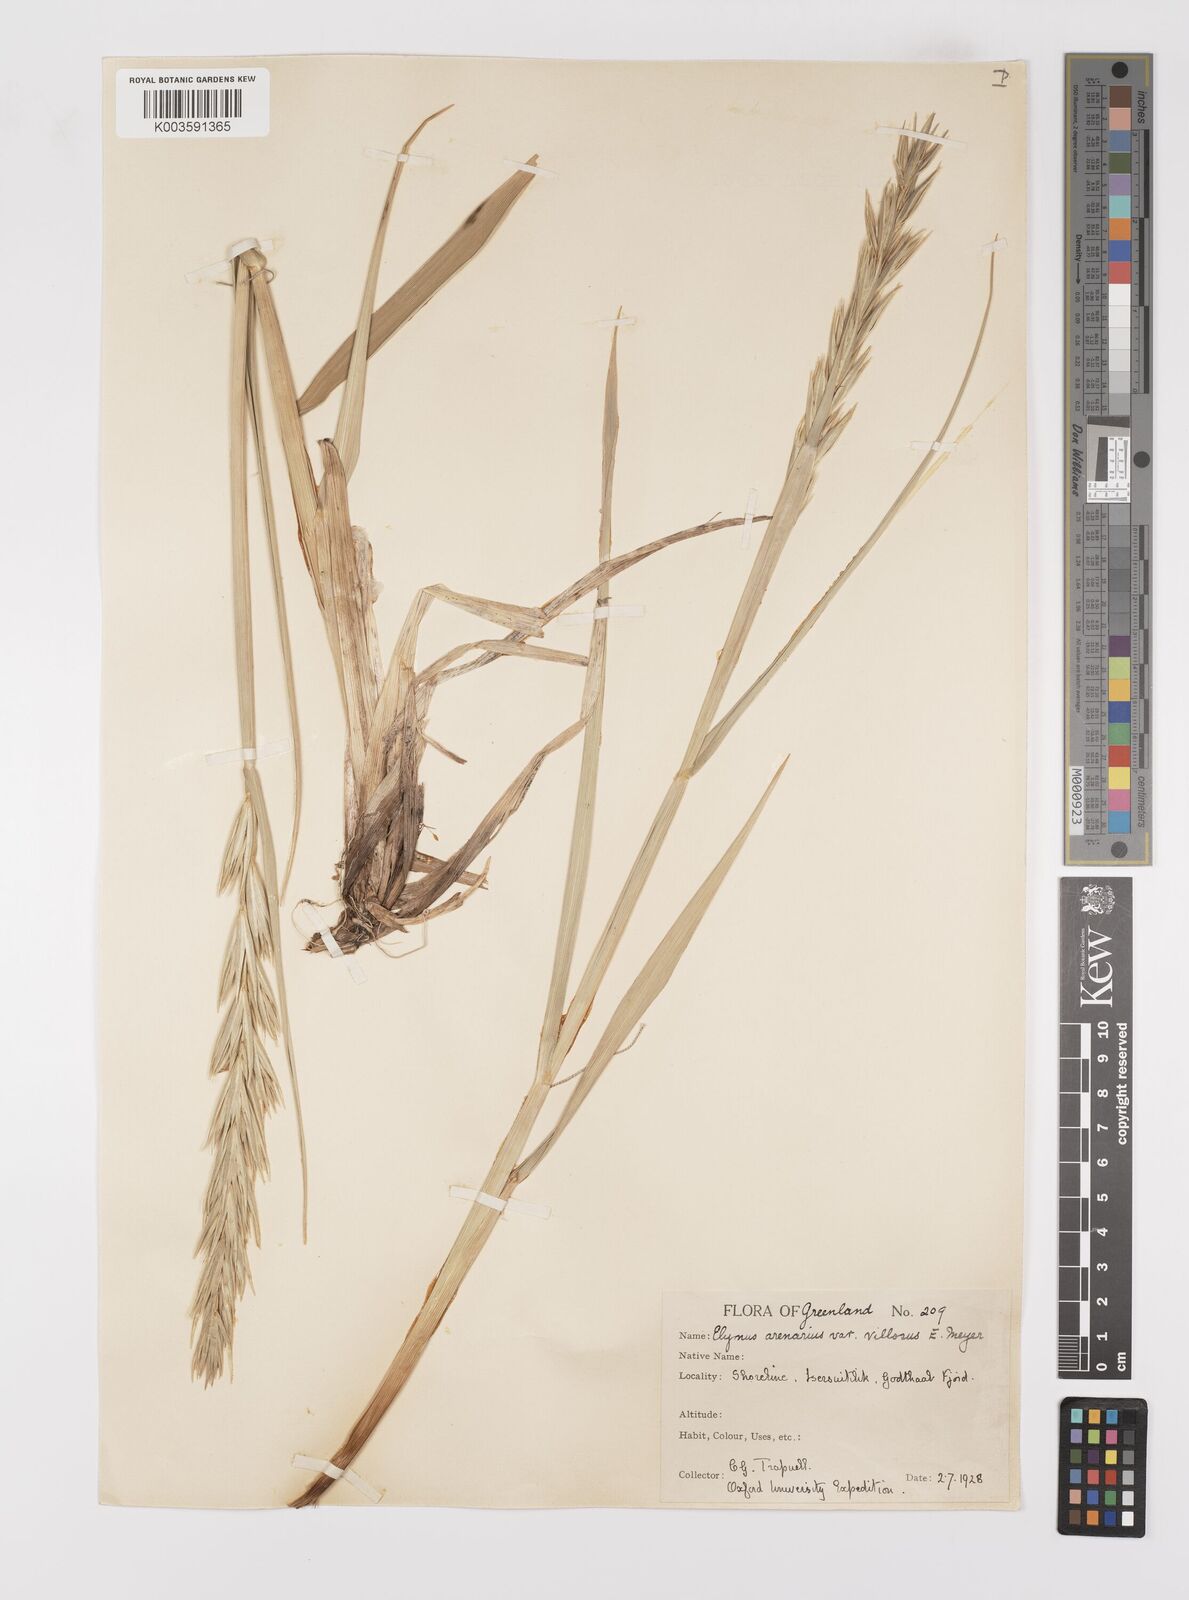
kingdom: Plantae
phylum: Tracheophyta
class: Liliopsida
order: Poales
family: Poaceae
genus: Leymus
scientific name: Leymus mollis
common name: American dune grass
